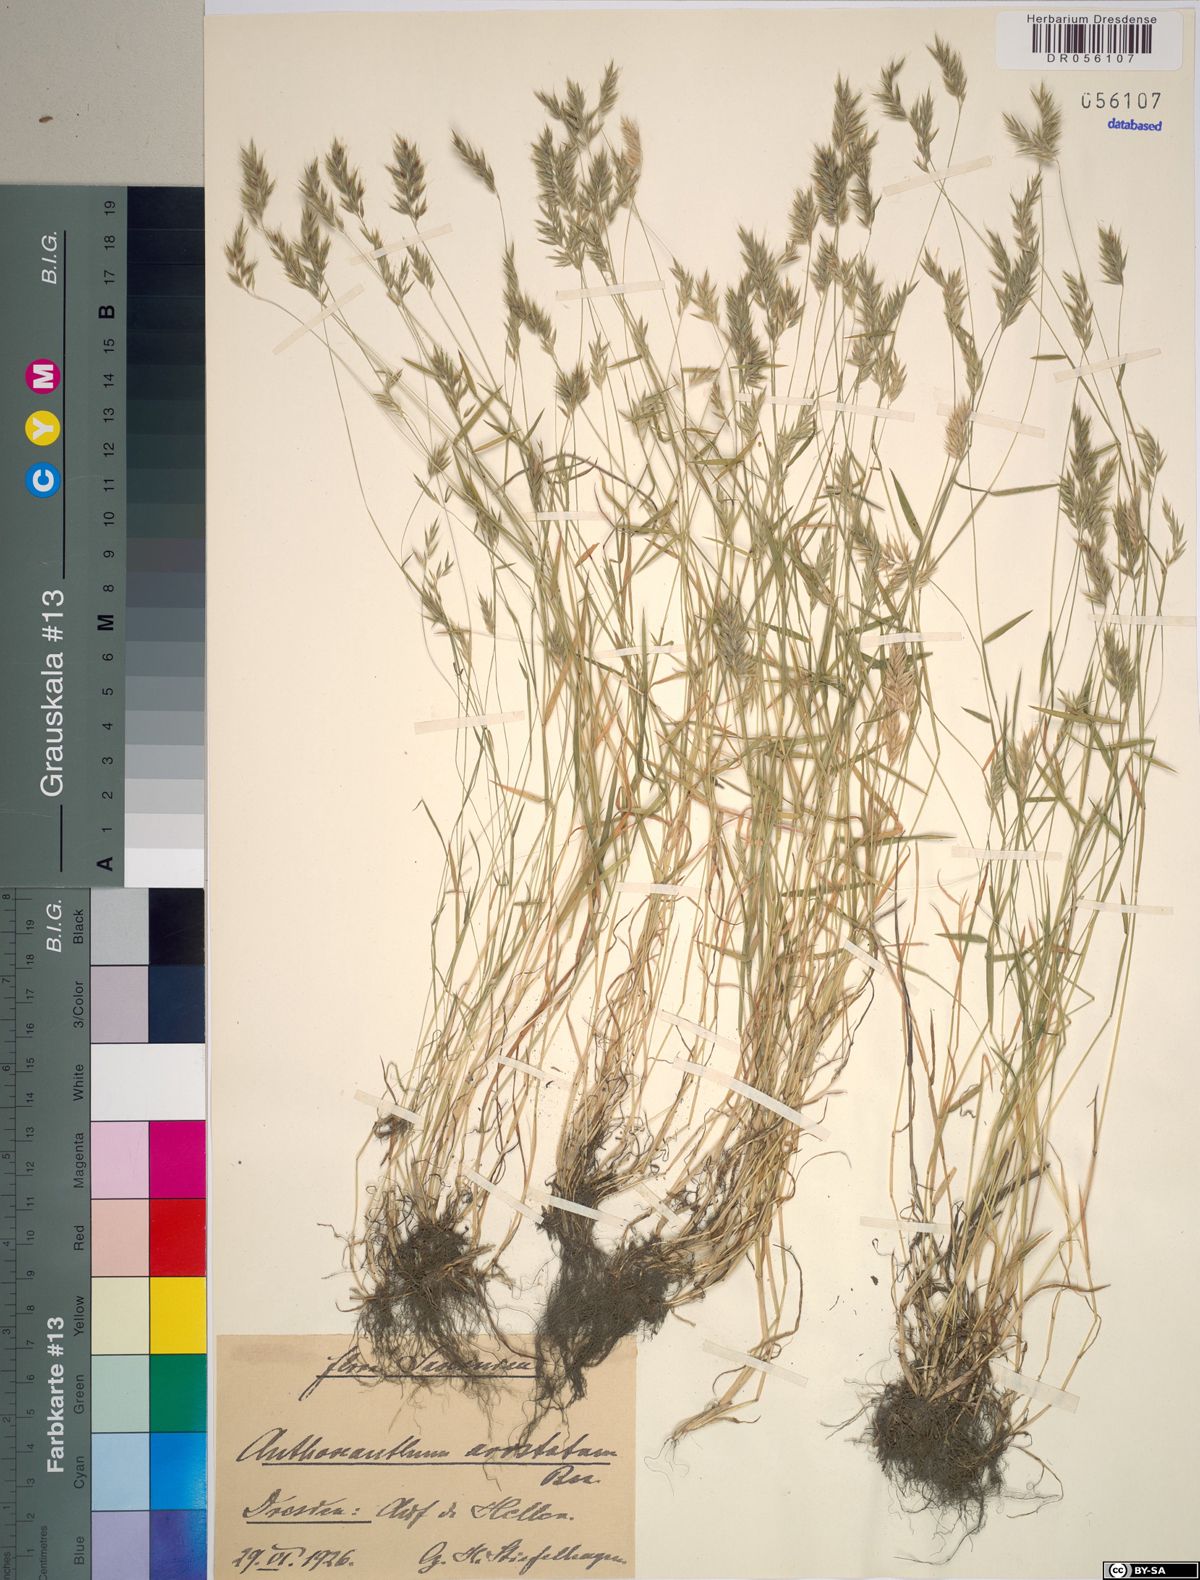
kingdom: Plantae
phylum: Tracheophyta
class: Liliopsida
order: Poales
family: Poaceae
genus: Anthoxanthum
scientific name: Anthoxanthum aristatum
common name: Annual vernal-grass
